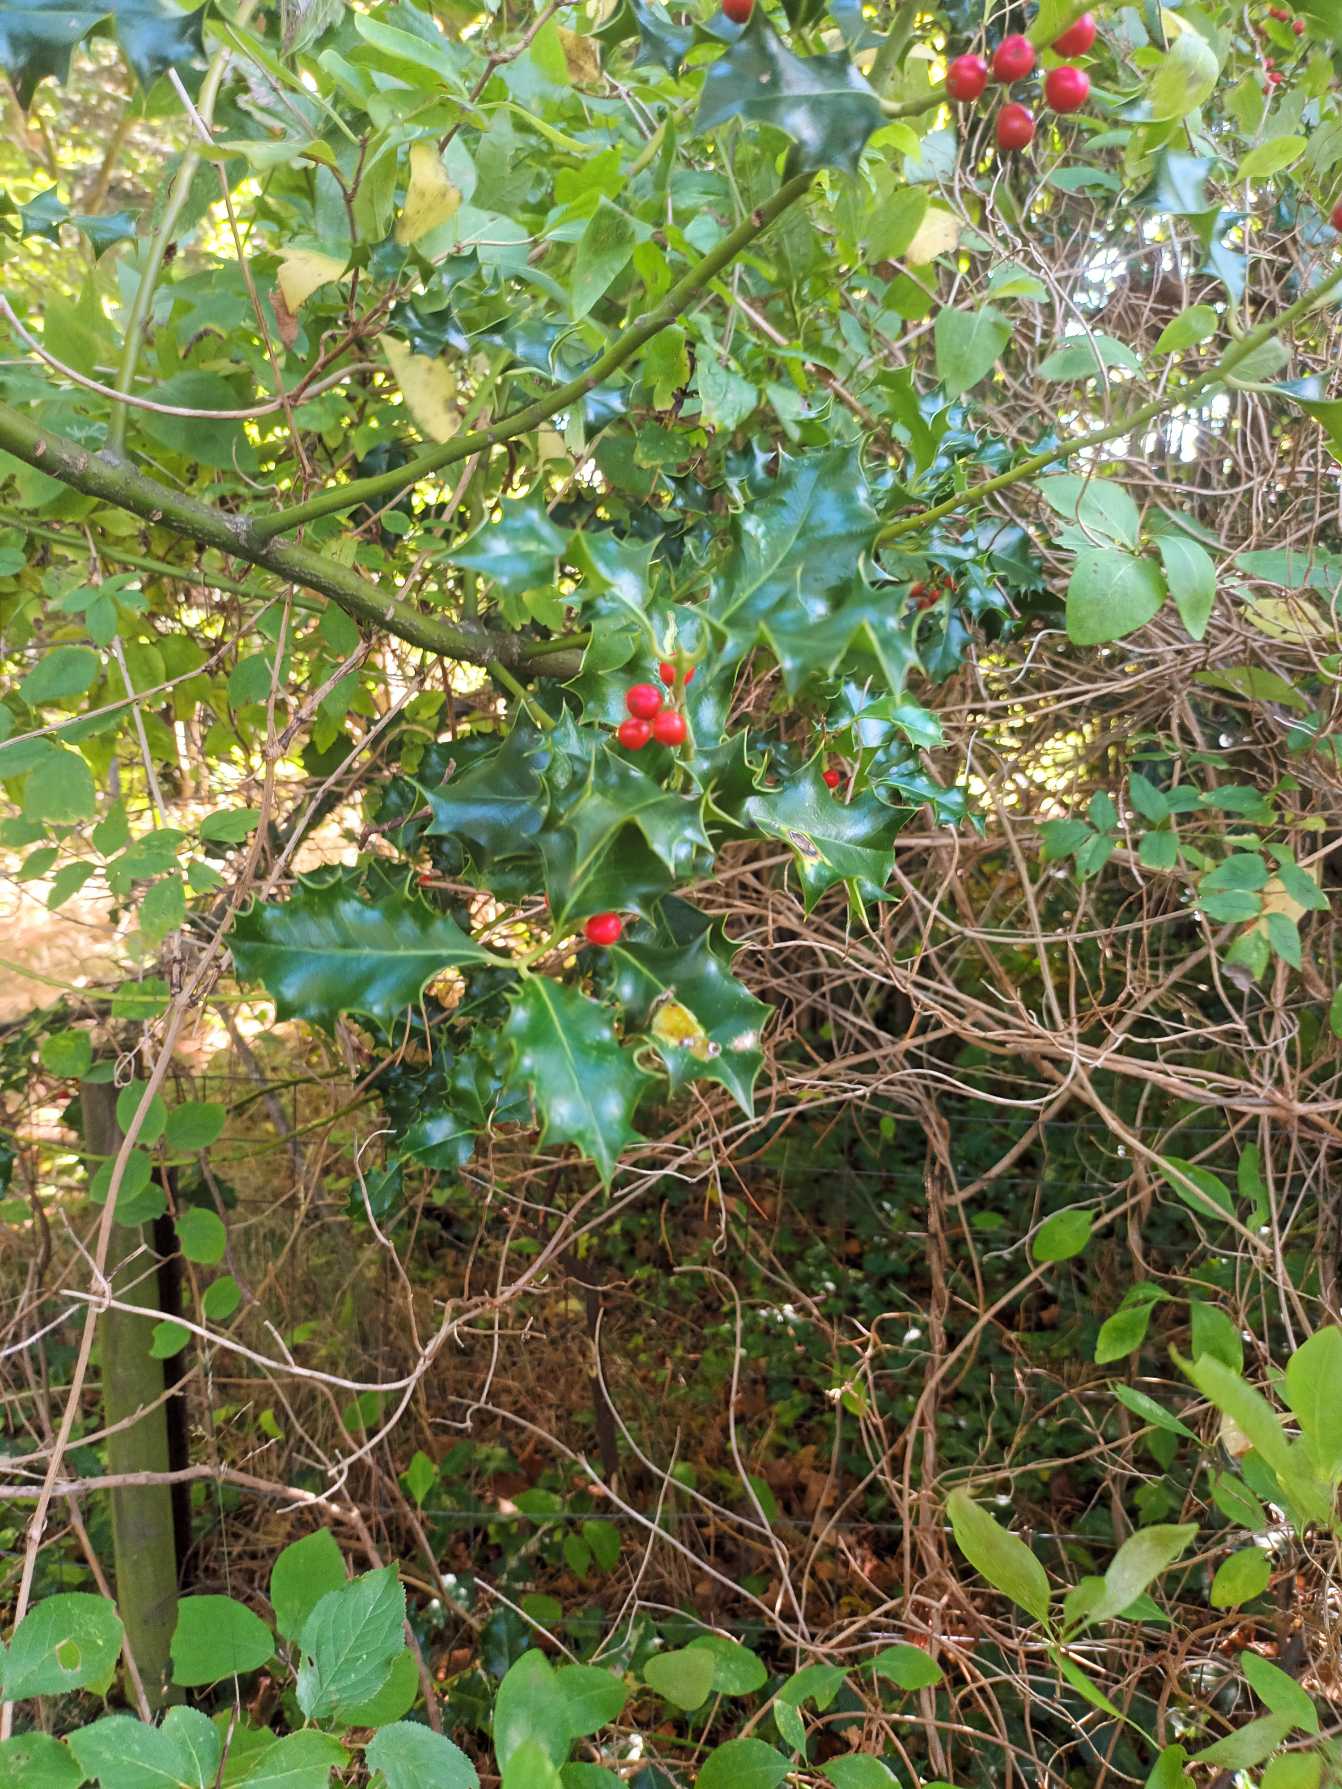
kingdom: Plantae
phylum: Tracheophyta
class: Magnoliopsida
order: Aquifoliales
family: Aquifoliaceae
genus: Ilex
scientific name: Ilex aquifolium
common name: Kristtorn
